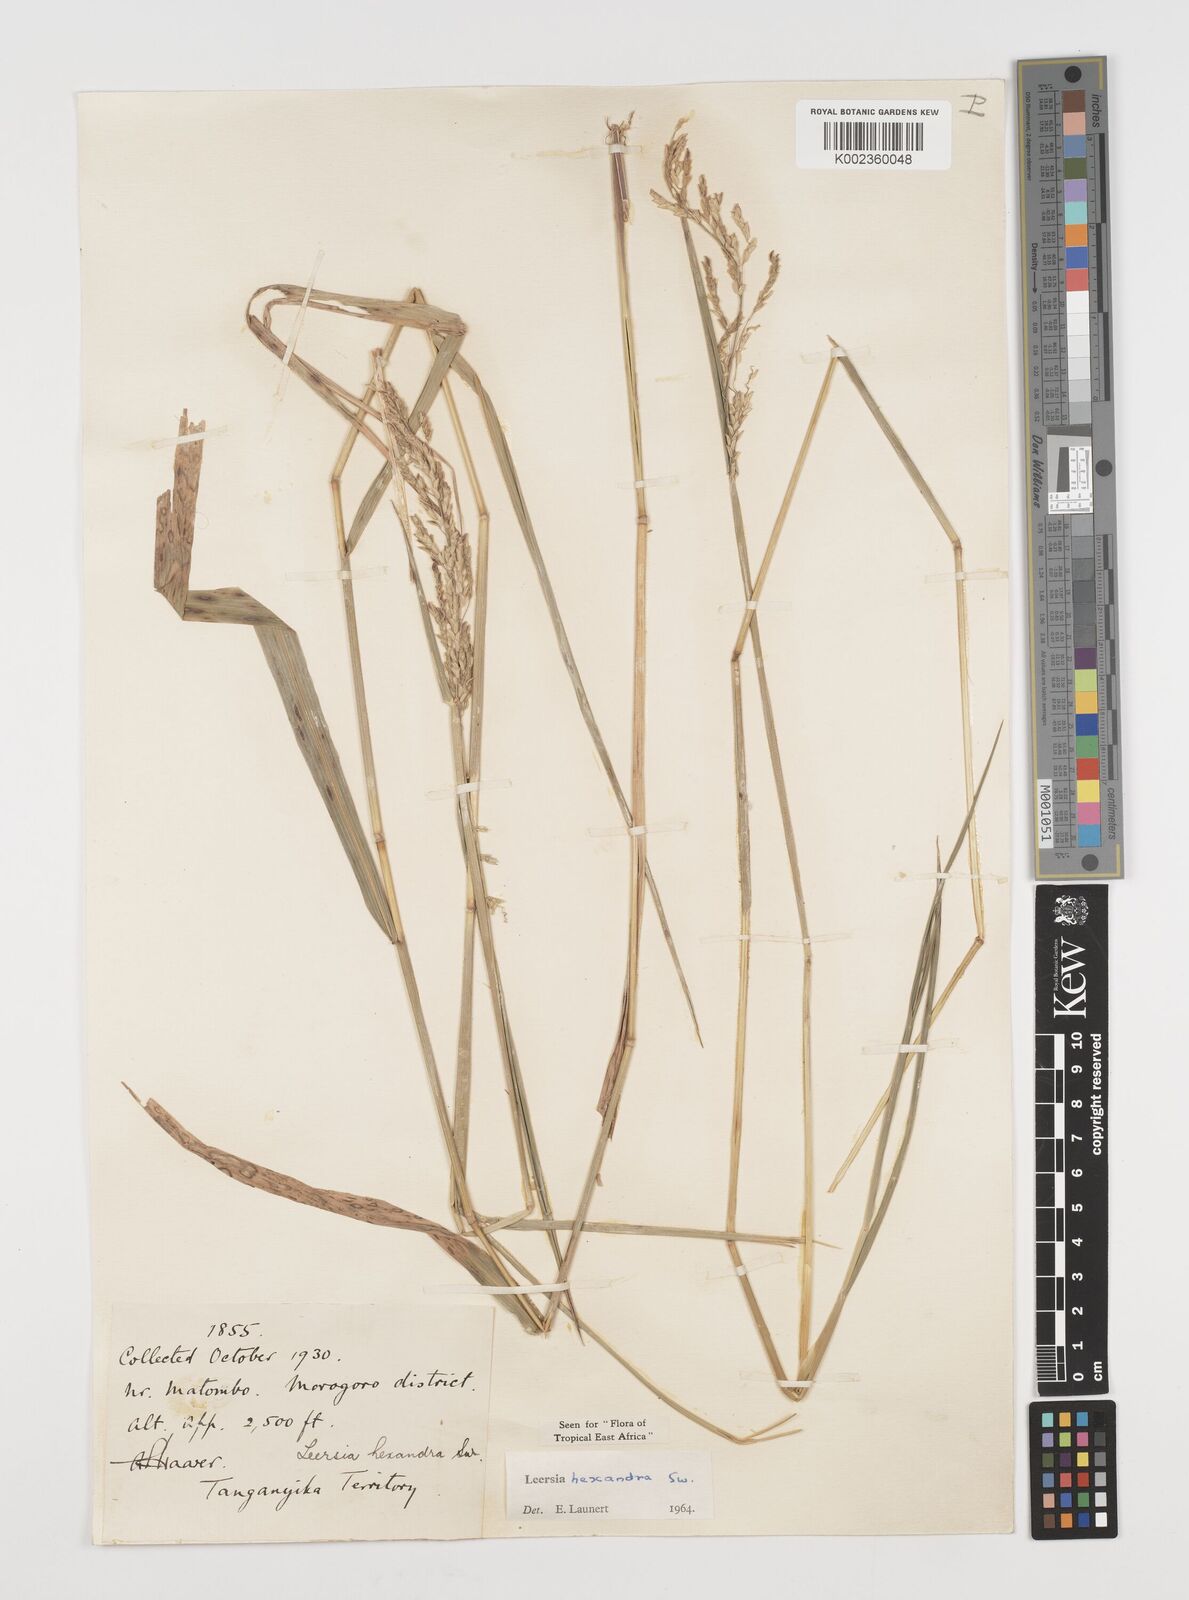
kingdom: Plantae
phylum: Tracheophyta
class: Liliopsida
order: Poales
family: Poaceae
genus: Leersia
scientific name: Leersia hexandra
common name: Southern cut grass
